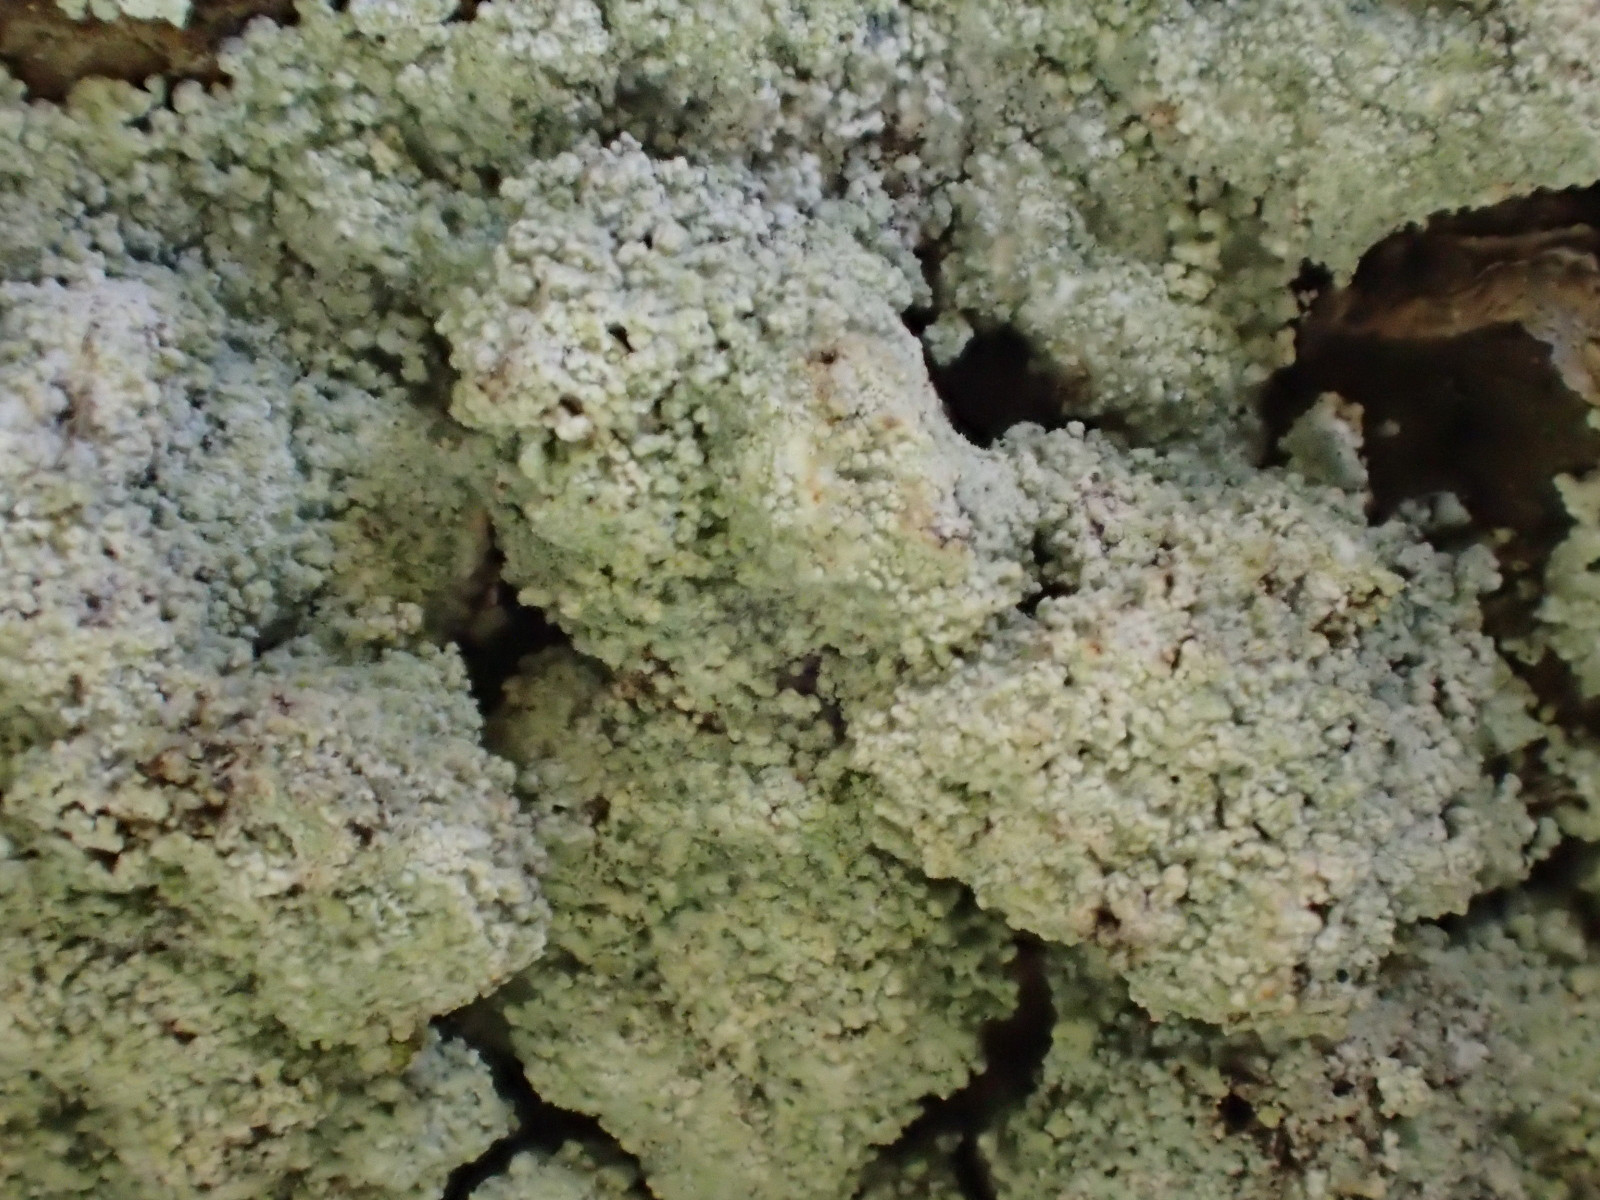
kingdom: Fungi
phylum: Ascomycota
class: Lecanoromycetes
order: Lecanorales
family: Stereocaulaceae
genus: Lepraria
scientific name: Lepraria incana
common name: almindelig støvlav
